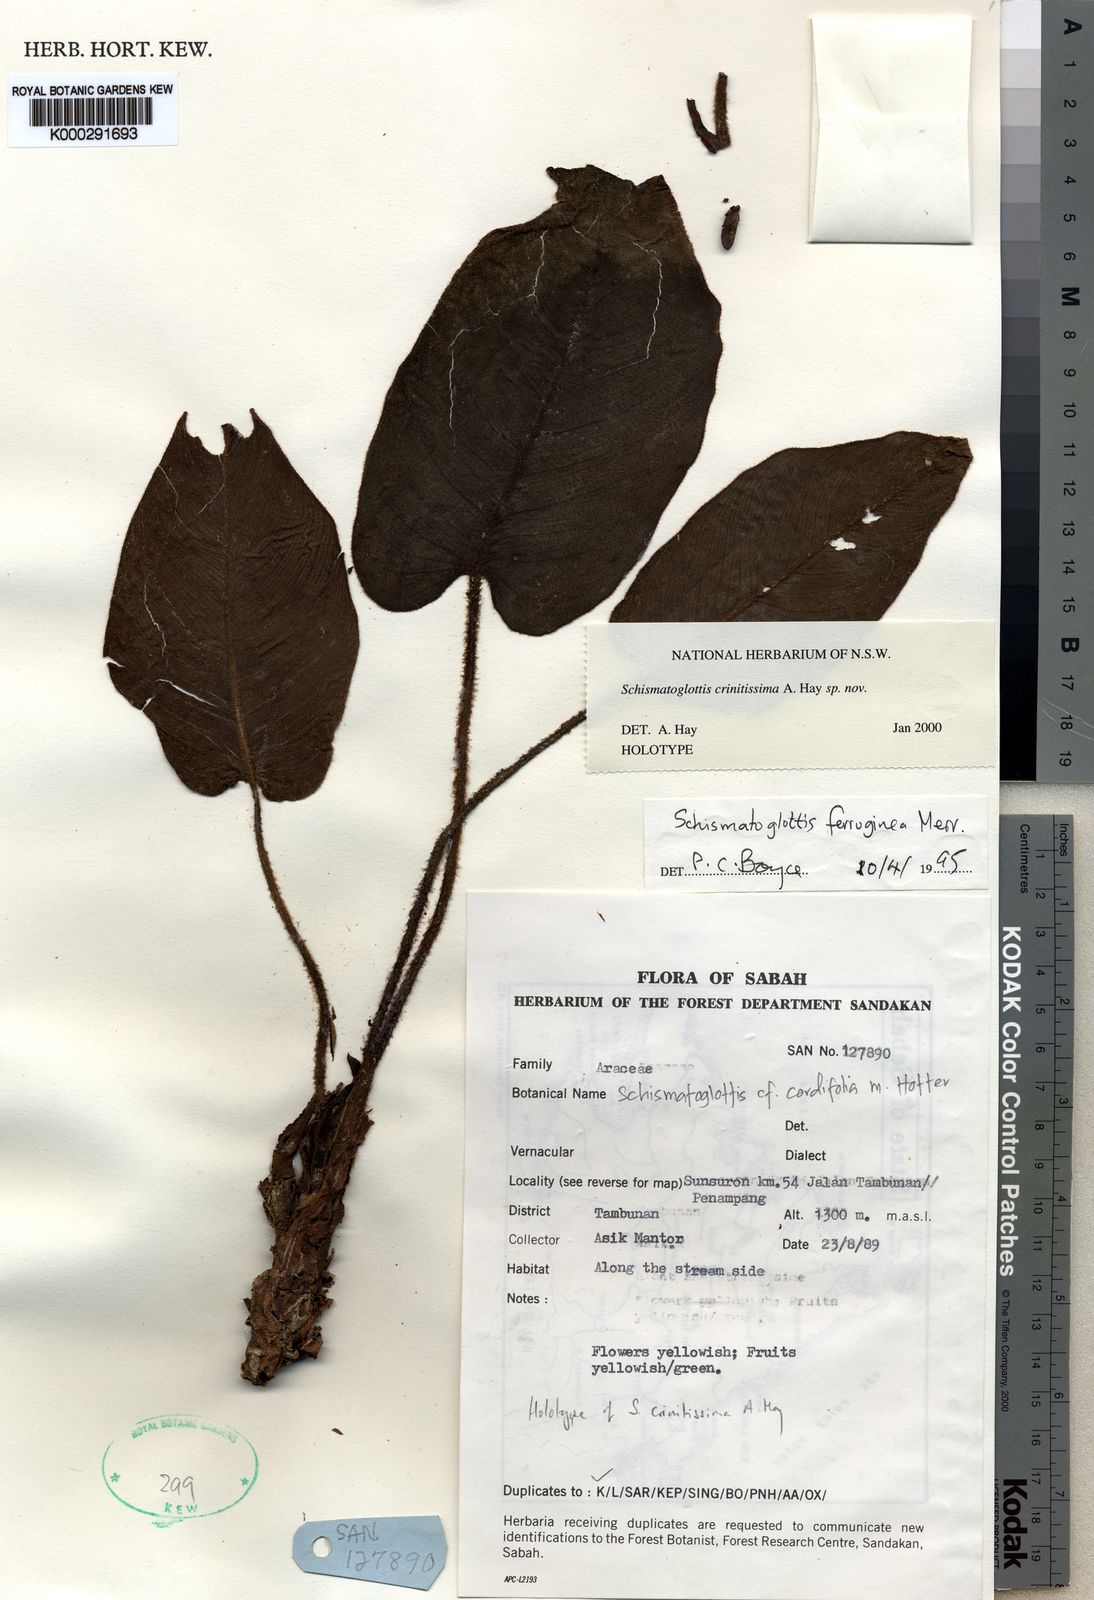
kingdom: Plantae
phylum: Tracheophyta
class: Liliopsida
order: Alismatales
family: Araceae
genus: Schismatoglottis
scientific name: Schismatoglottis crinitissima
